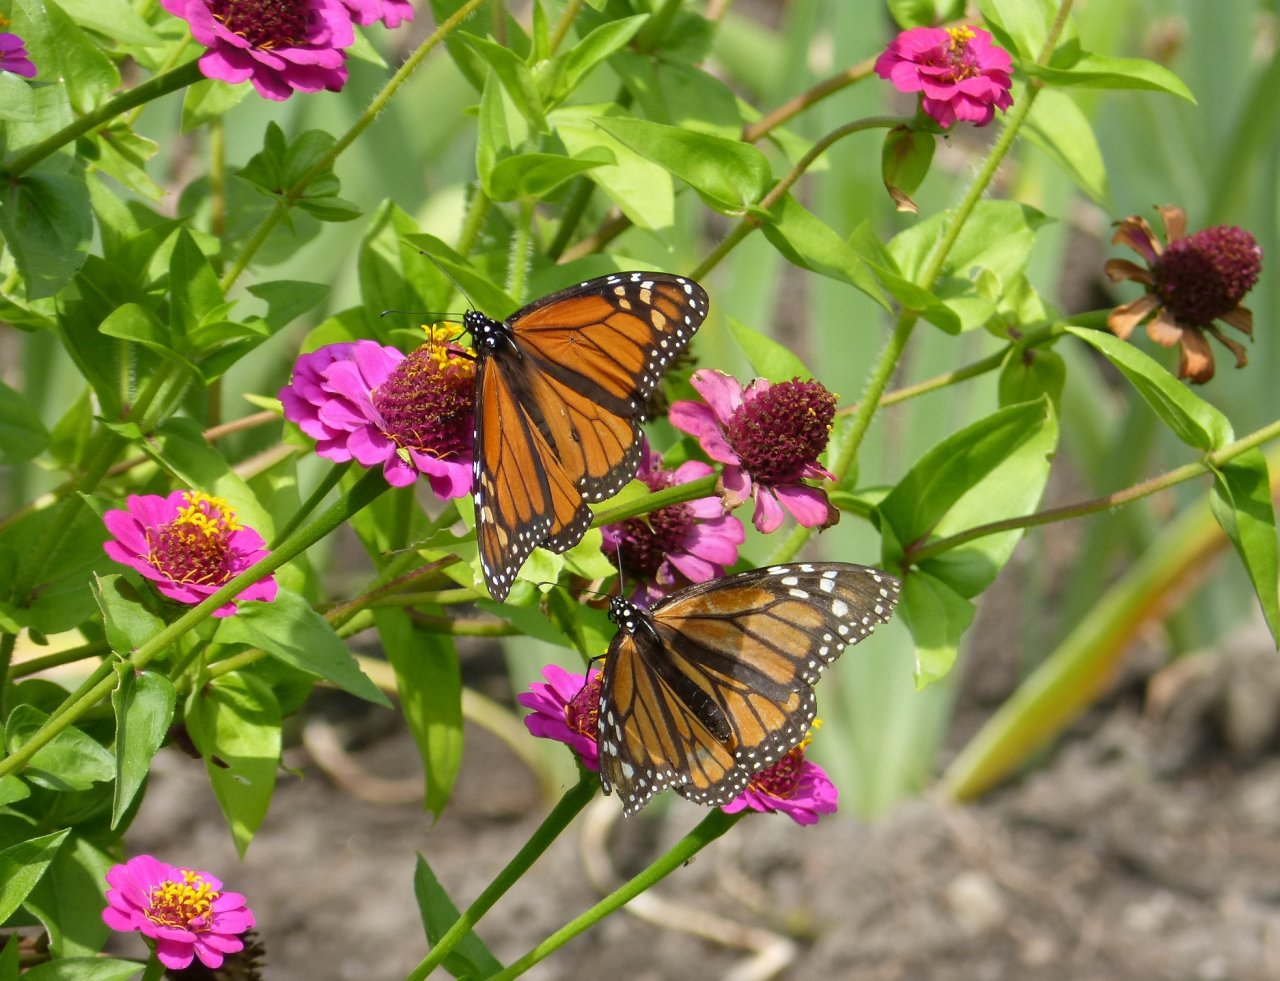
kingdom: Animalia
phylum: Arthropoda
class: Insecta
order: Lepidoptera
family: Nymphalidae
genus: Danaus
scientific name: Danaus plexippus
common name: Monarch
